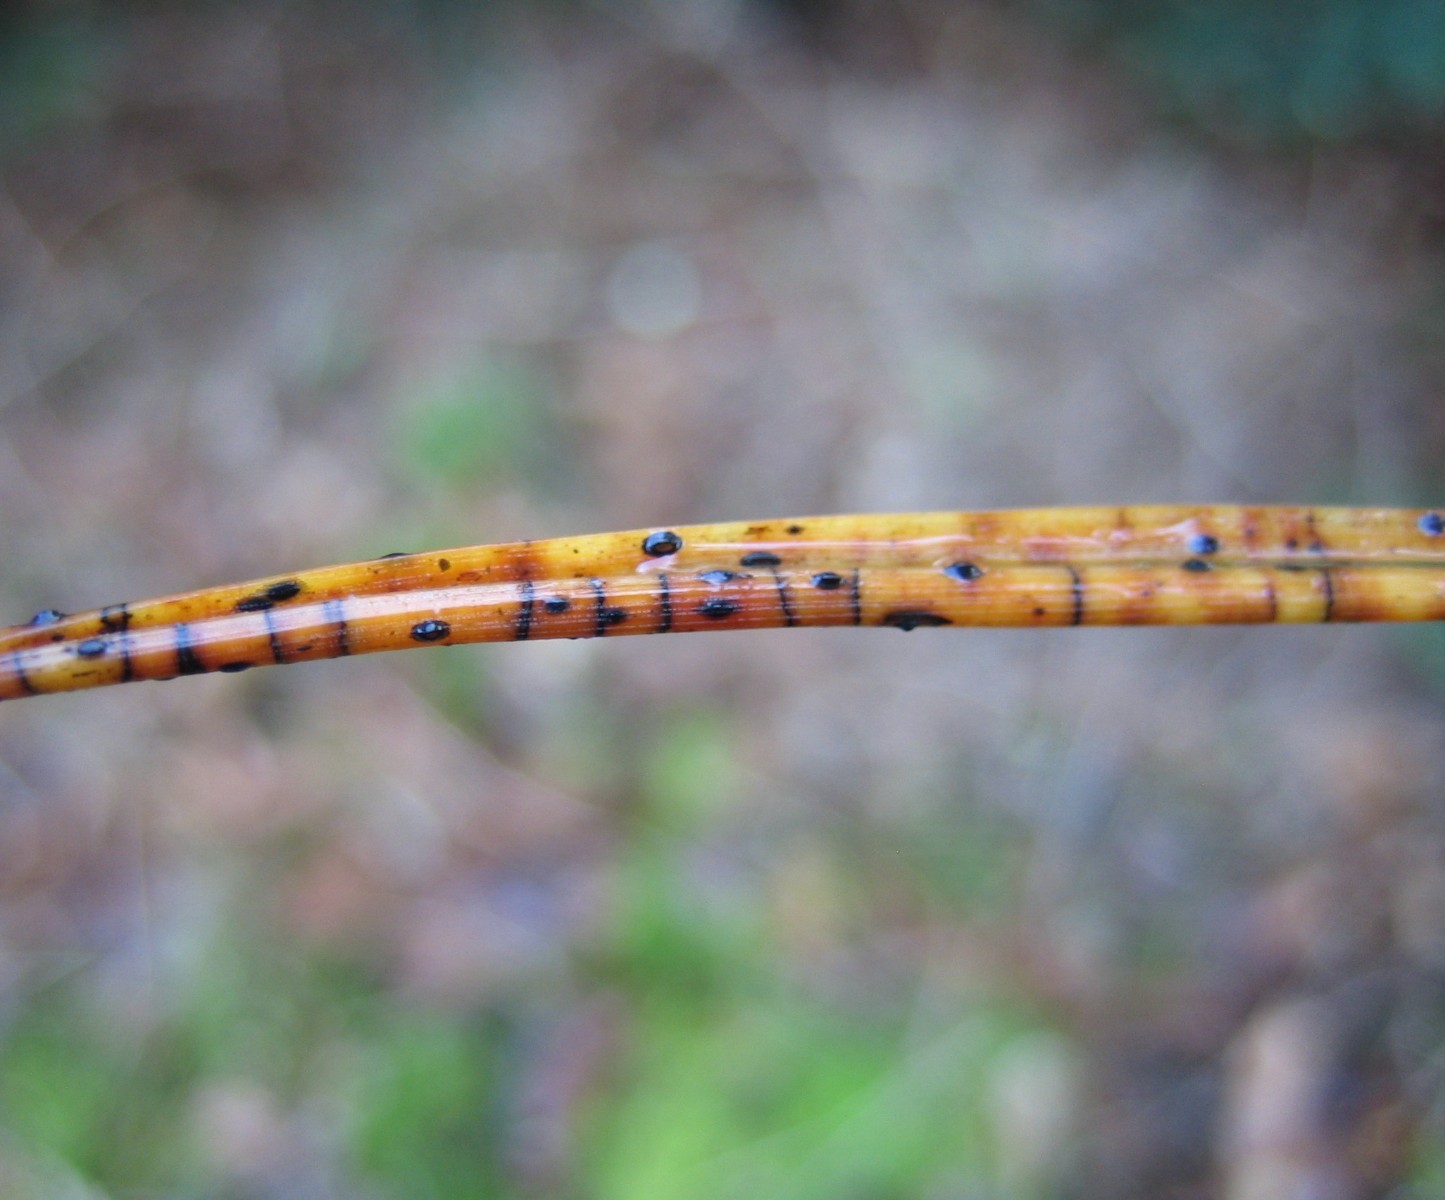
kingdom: Fungi
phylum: Ascomycota
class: Leotiomycetes
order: Rhytismatales
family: Rhytismataceae
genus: Lophodermium
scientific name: Lophodermium pinastri
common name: fyrre-fureplet
